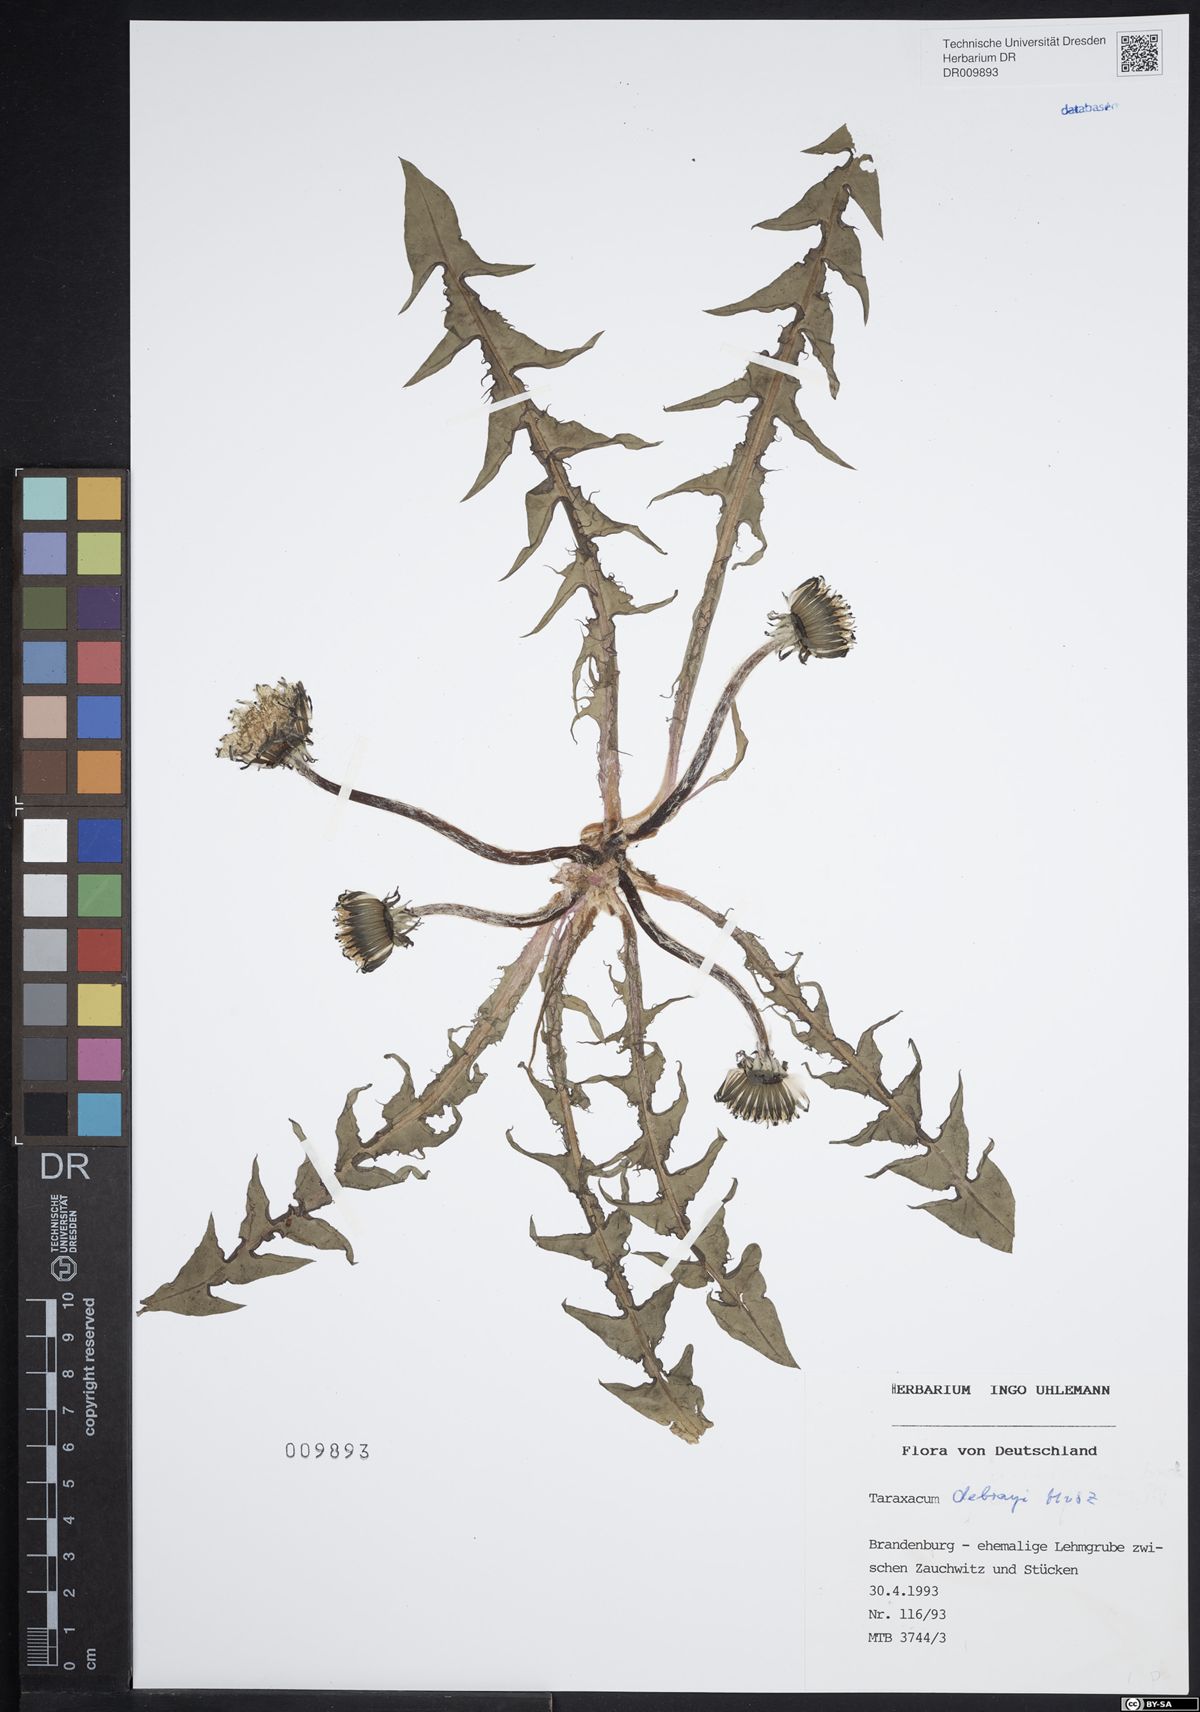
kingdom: Plantae
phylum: Tracheophyta
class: Magnoliopsida
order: Asterales
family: Asteraceae
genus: Taraxacum
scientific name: Taraxacum debrayi
